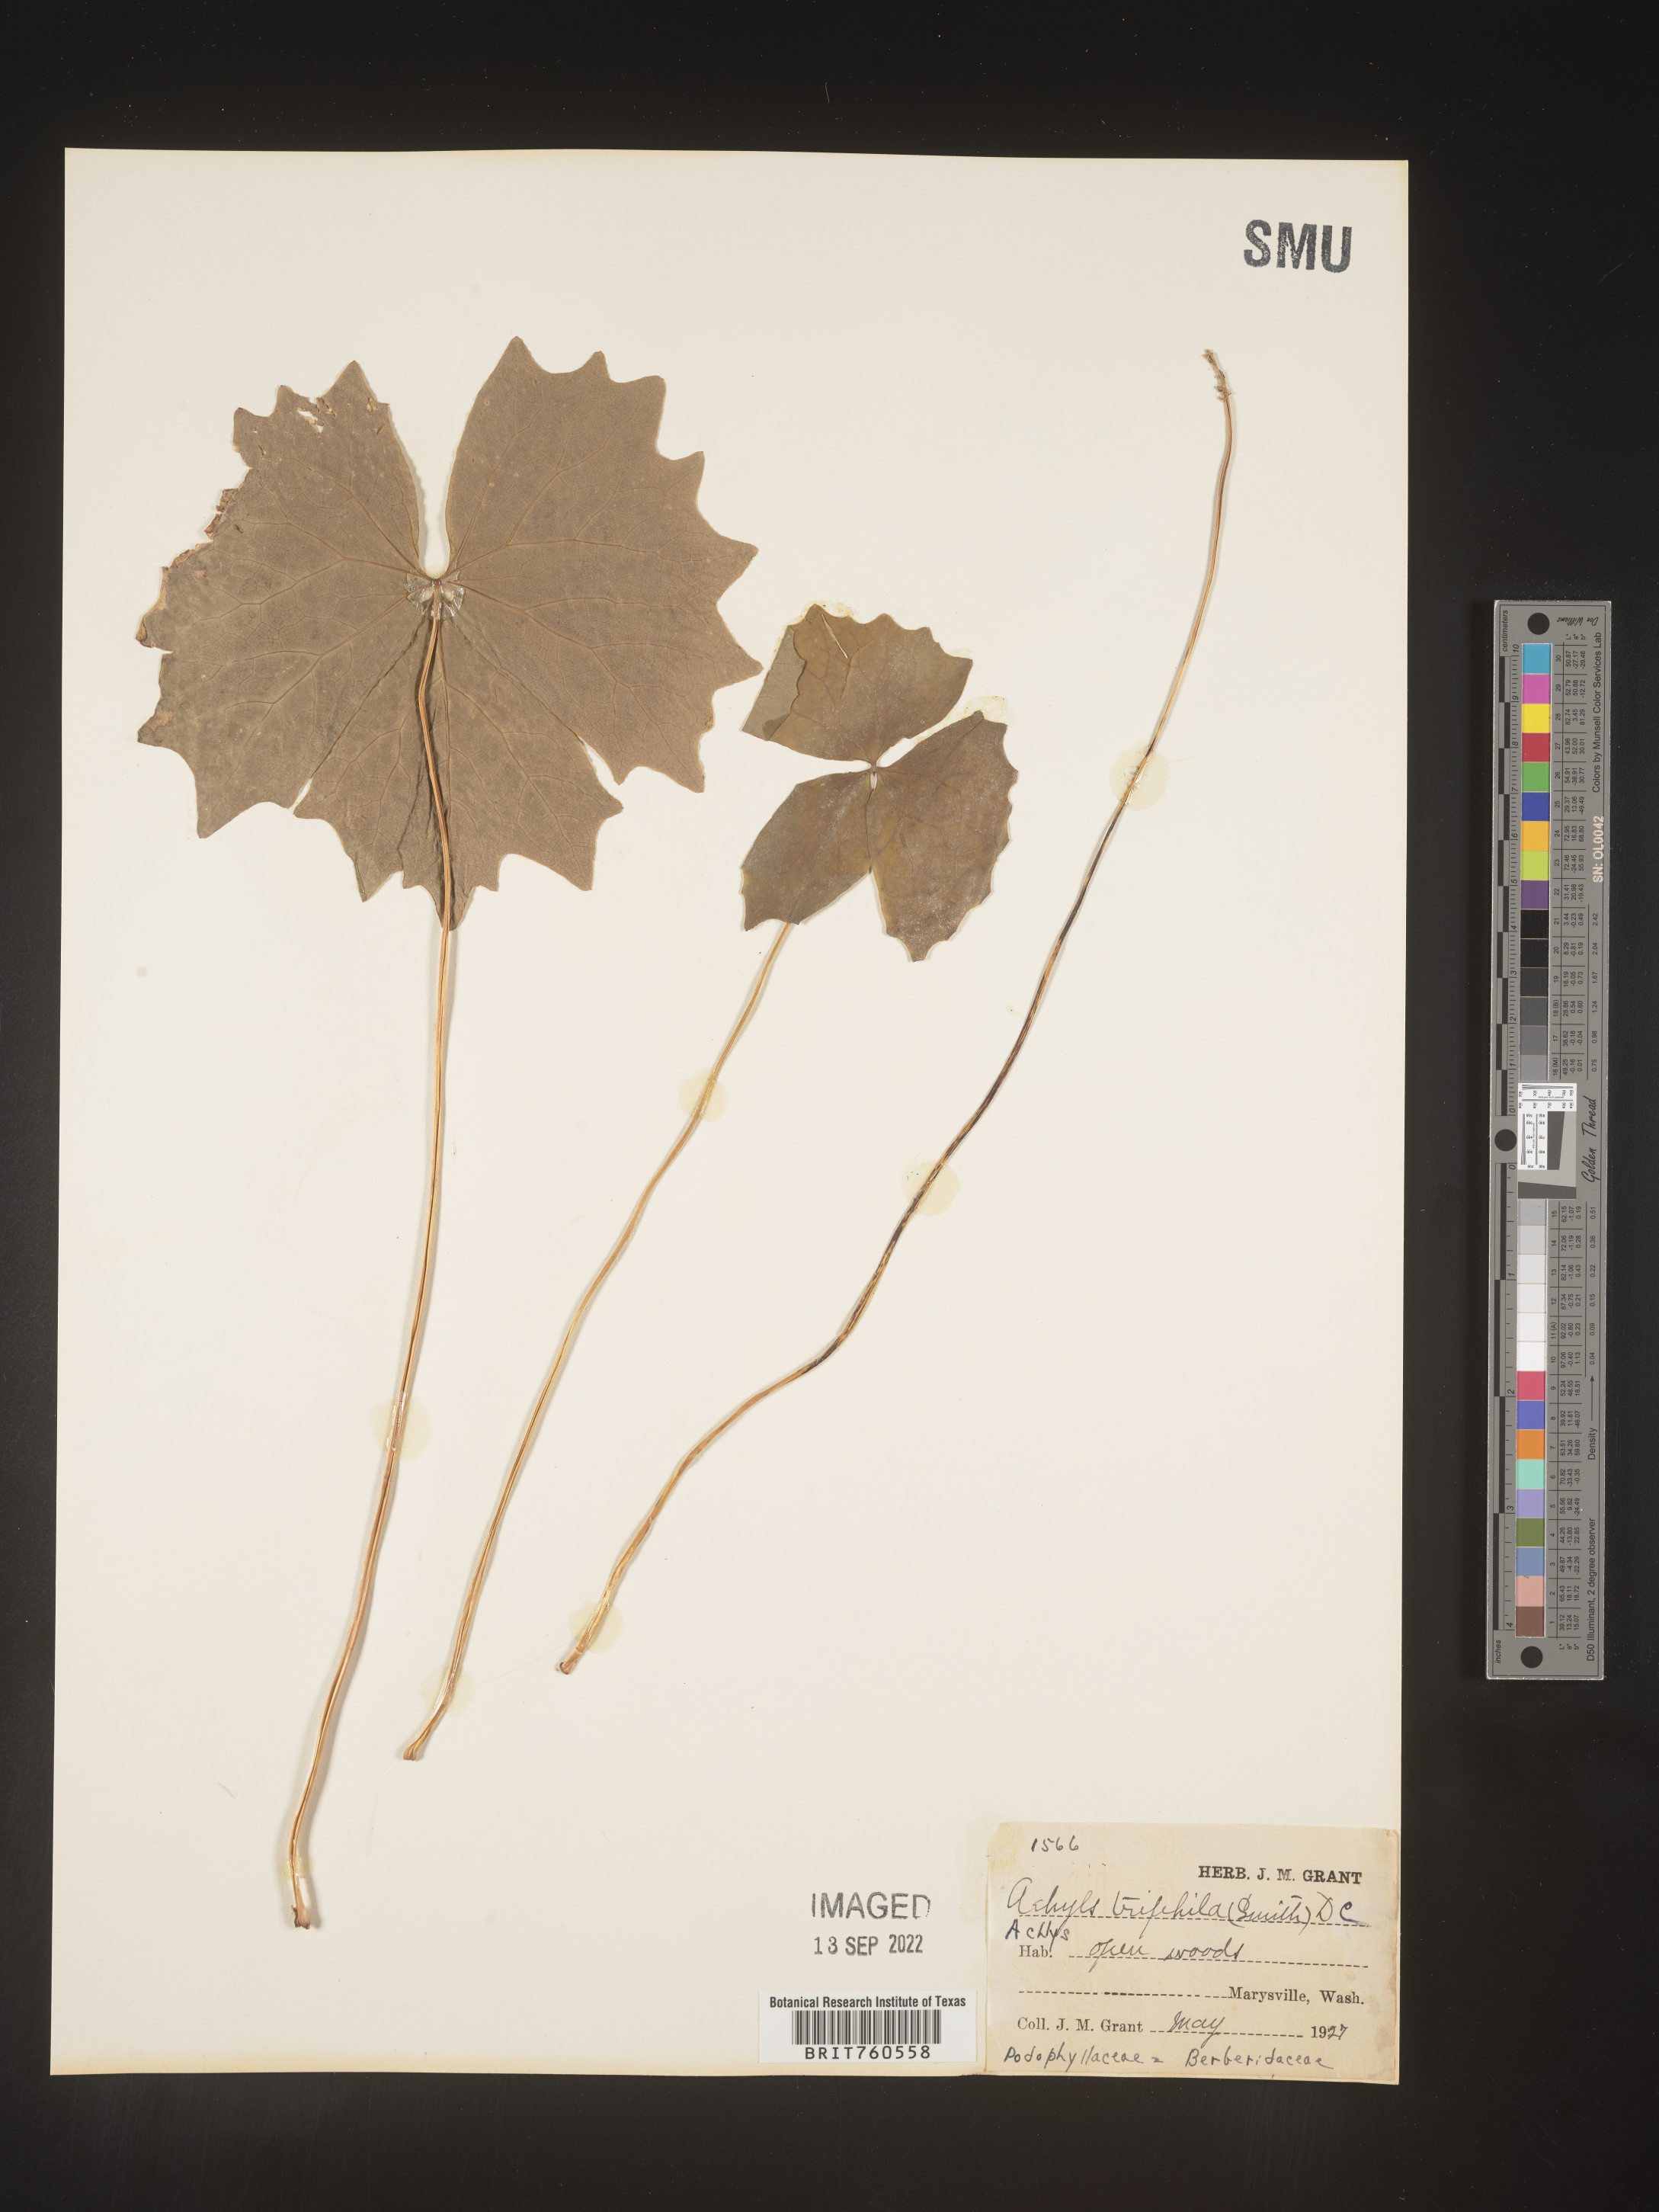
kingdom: Plantae
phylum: Tracheophyta
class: Magnoliopsida
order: Ranunculales
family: Berberidaceae
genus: Achlys
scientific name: Achlys
